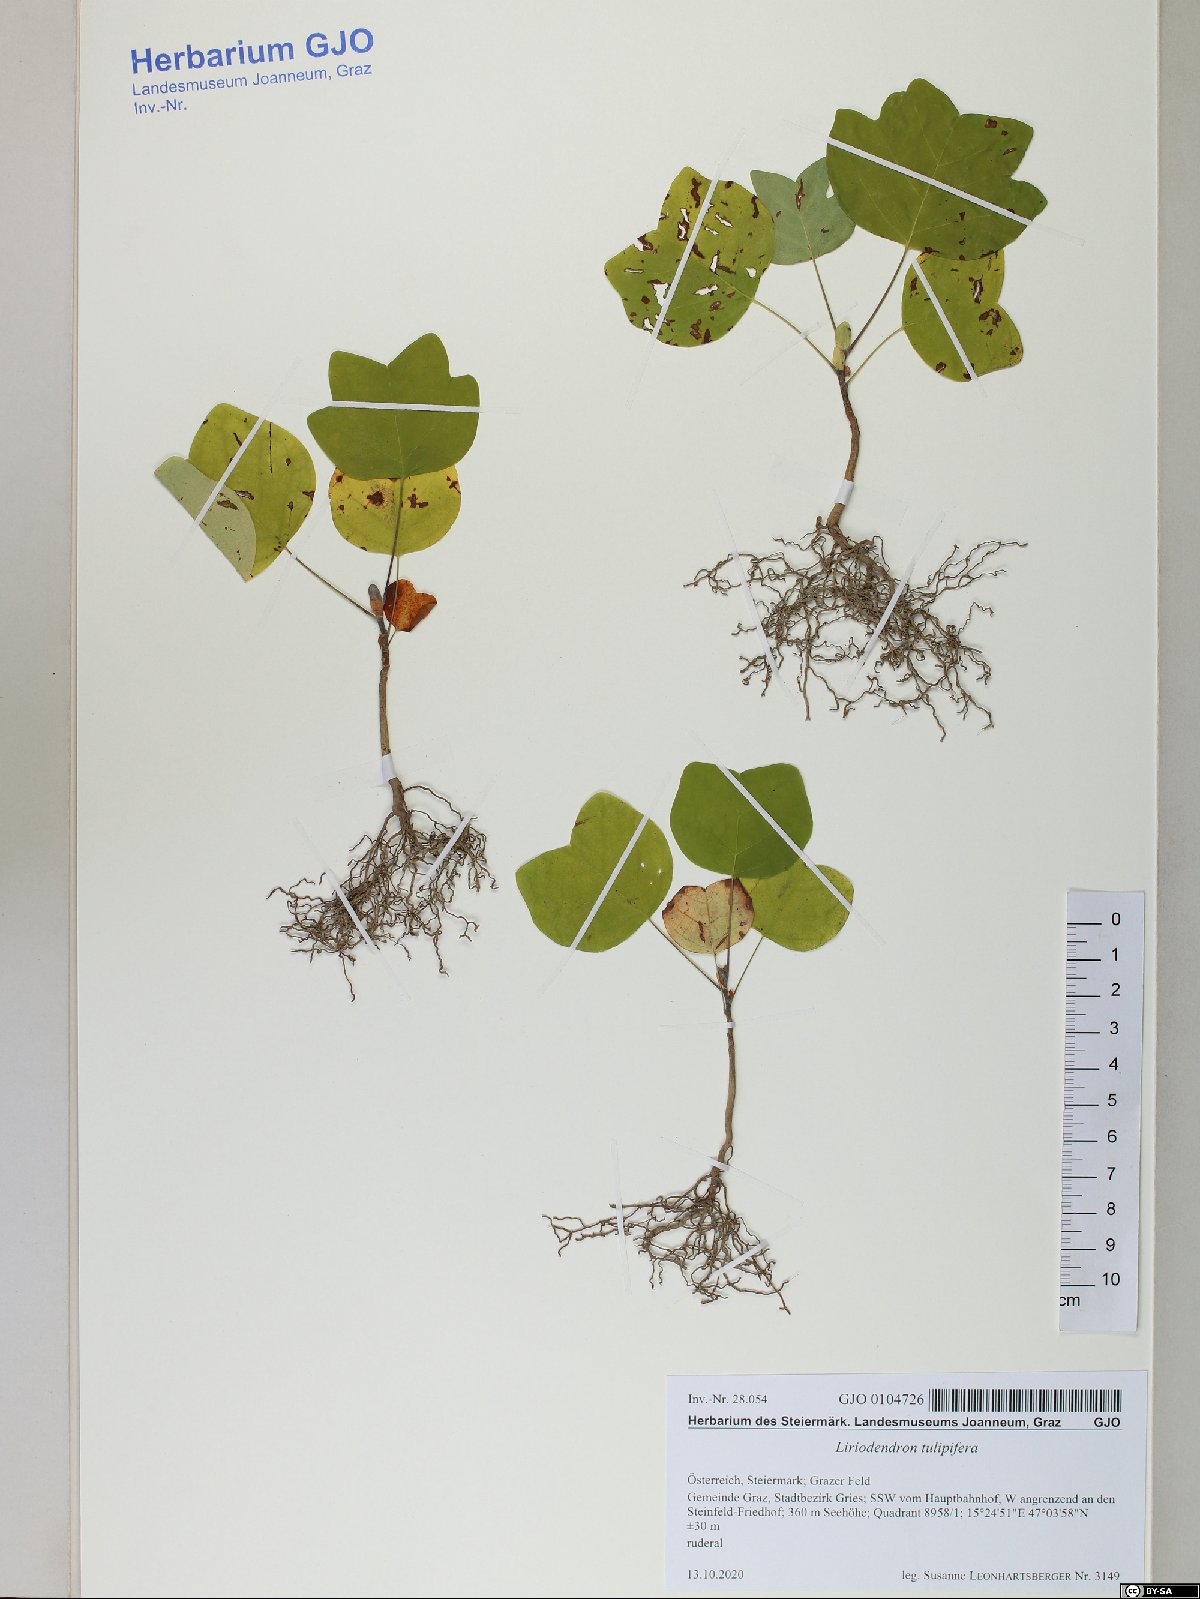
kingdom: Plantae
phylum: Tracheophyta
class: Magnoliopsida
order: Magnoliales
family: Magnoliaceae
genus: Liriodendron
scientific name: Liriodendron tulipifera
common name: Tulip tree
